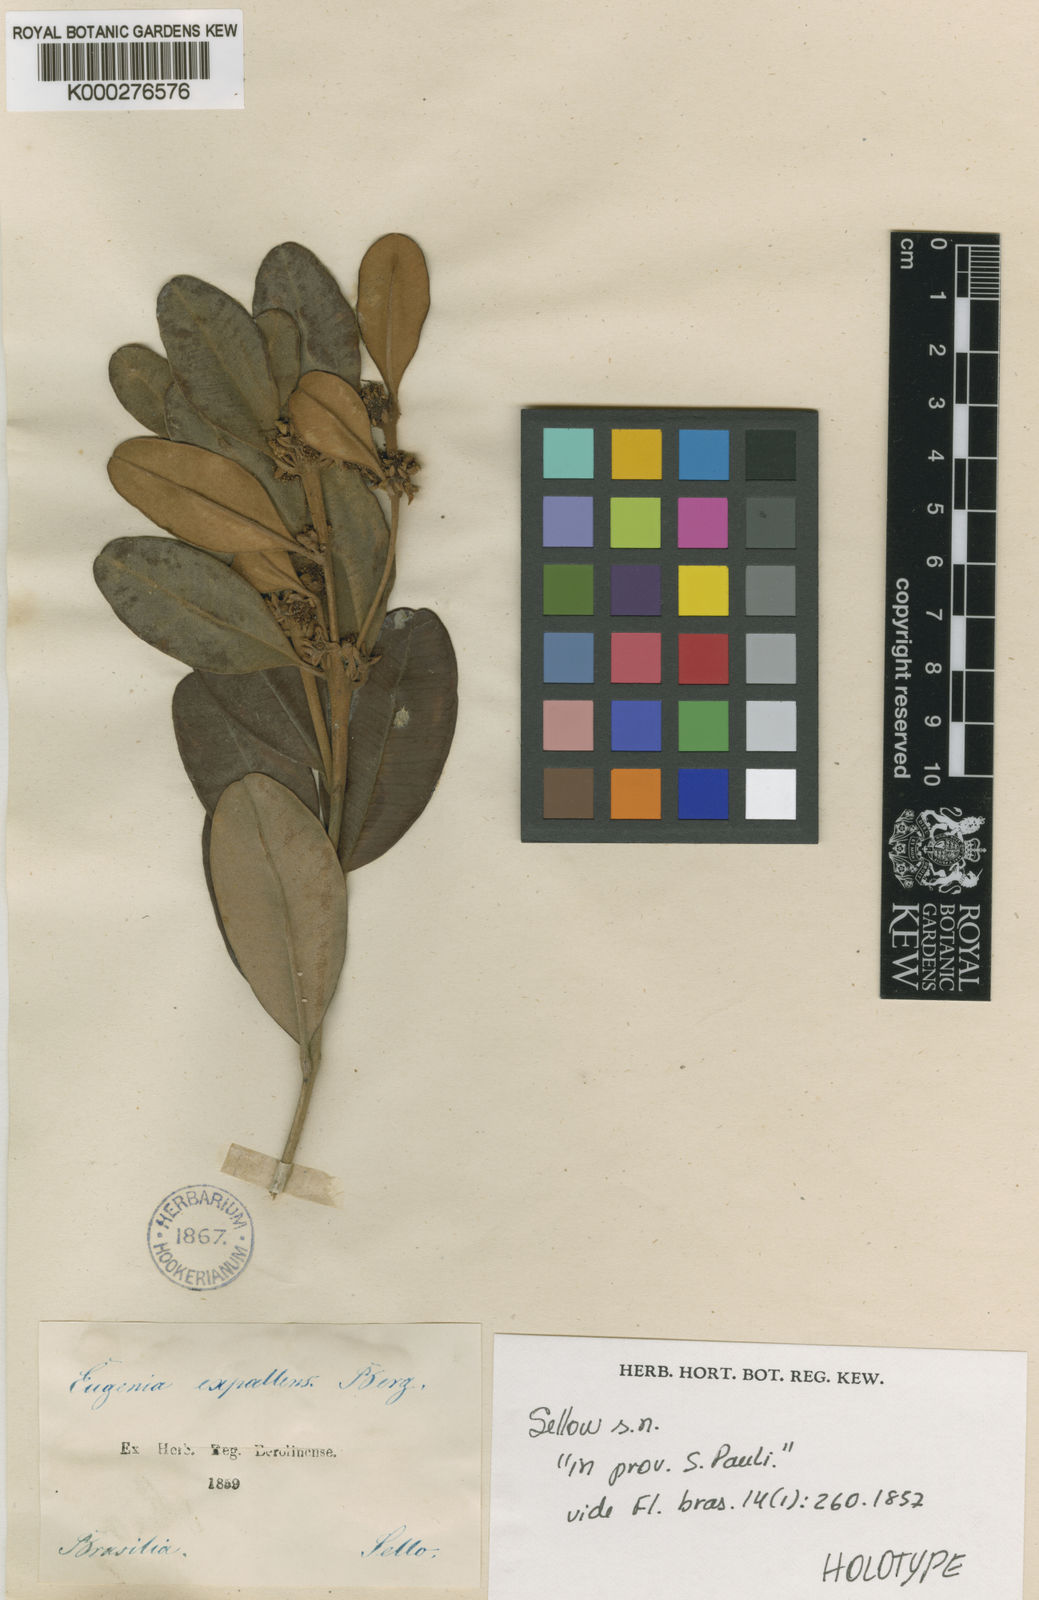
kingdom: Plantae
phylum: Tracheophyta
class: Magnoliopsida
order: Myrtales
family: Myrtaceae
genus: Myrceugenia
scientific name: Myrceugenia bracteosa
